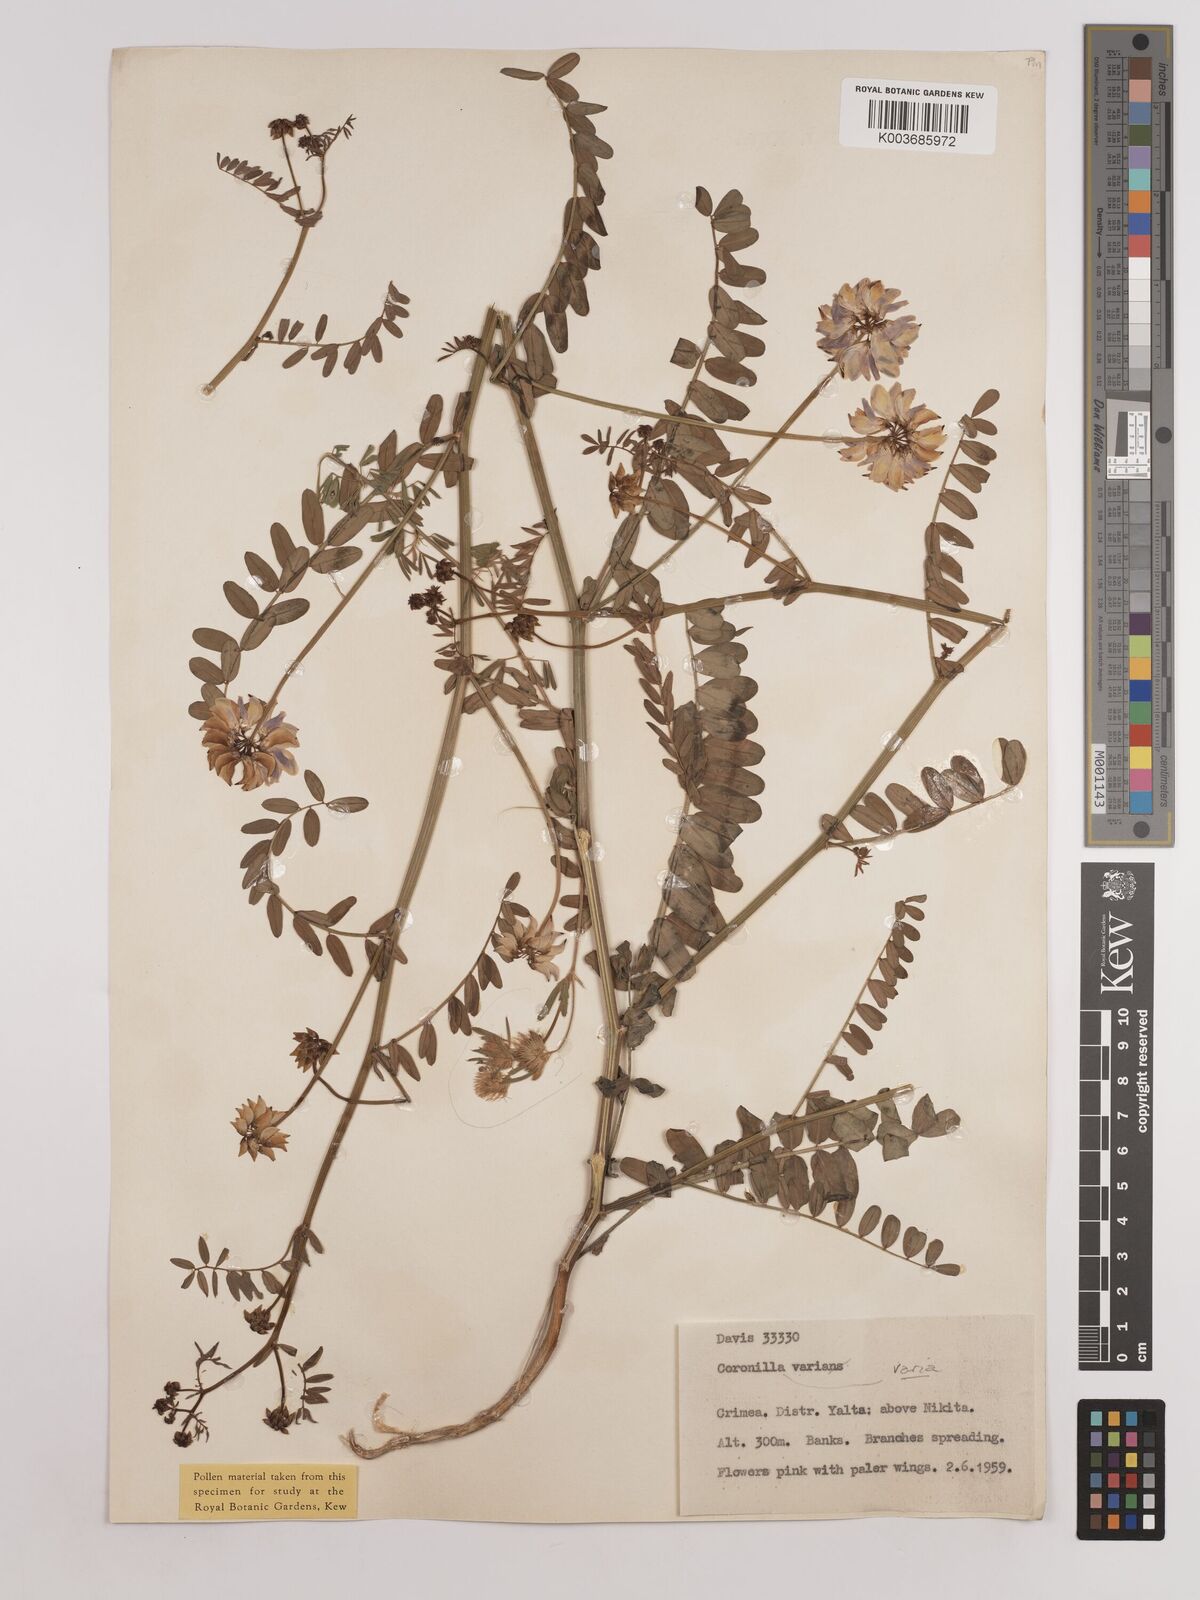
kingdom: Plantae
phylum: Tracheophyta
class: Magnoliopsida
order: Fabales
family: Fabaceae
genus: Coronilla
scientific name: Coronilla varia
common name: Crownvetch
